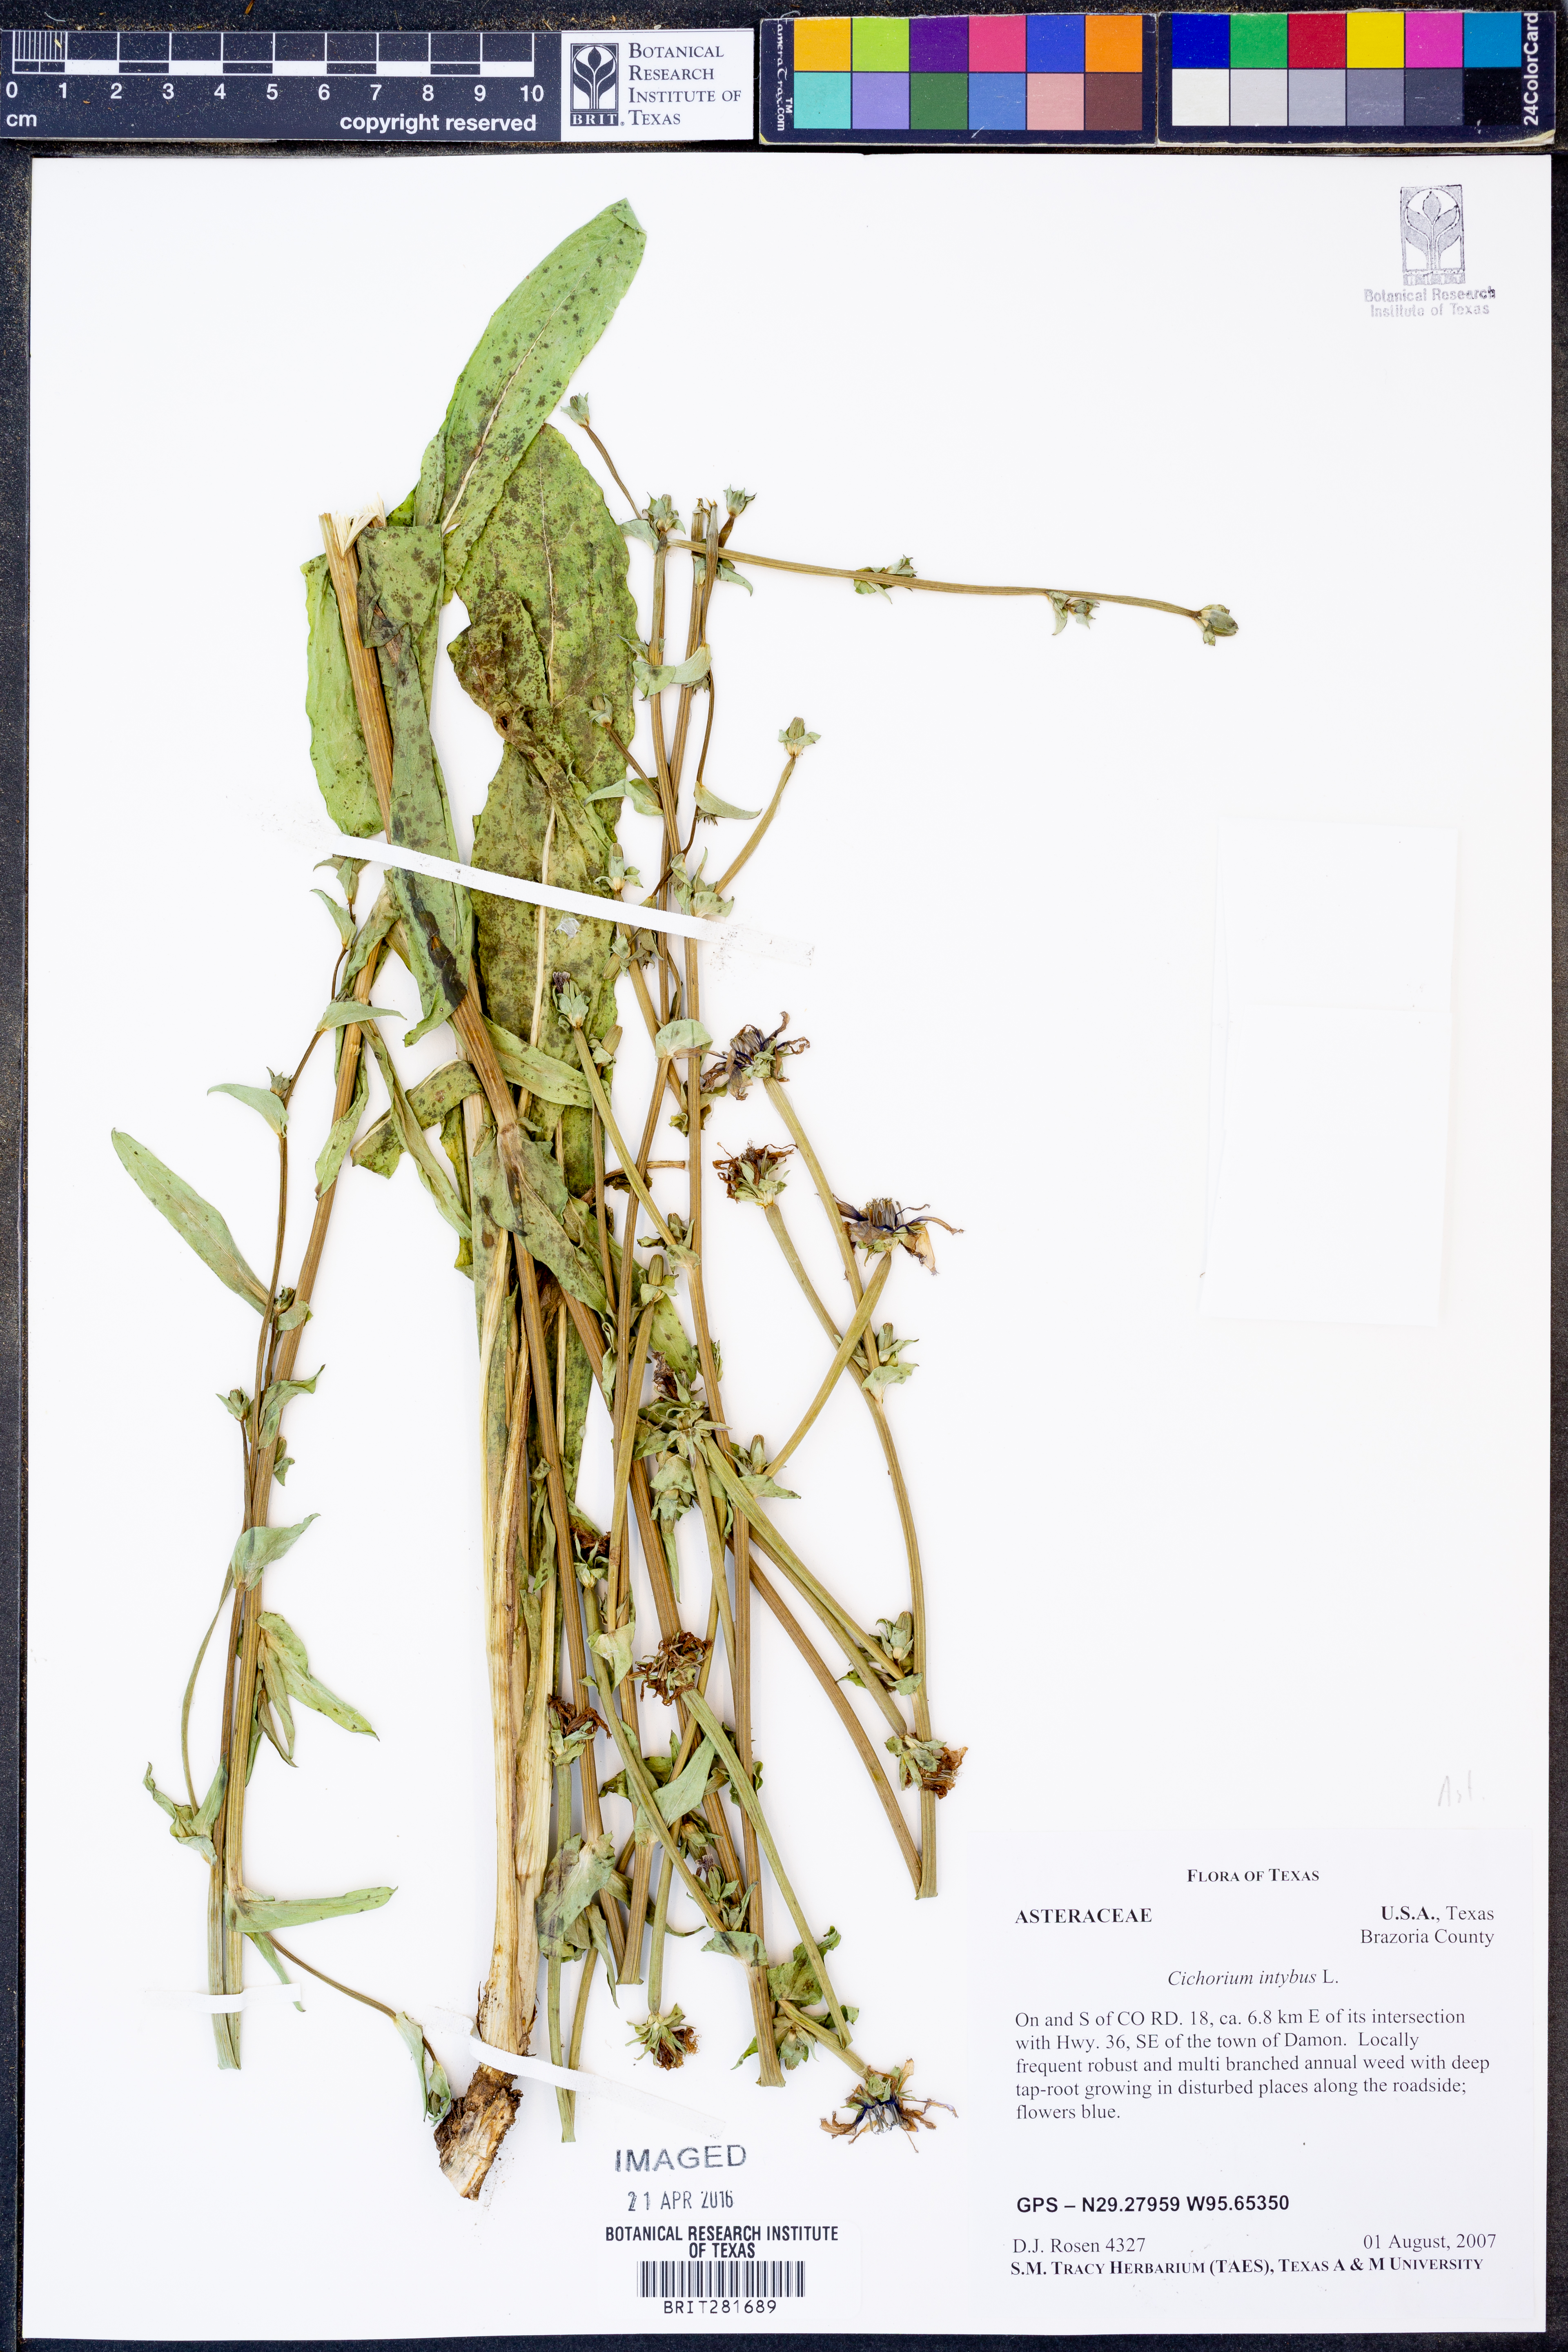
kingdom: Plantae
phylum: Tracheophyta
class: Magnoliopsida
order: Asterales
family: Asteraceae
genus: Cichorium
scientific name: Cichorium intybus
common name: Chicory
